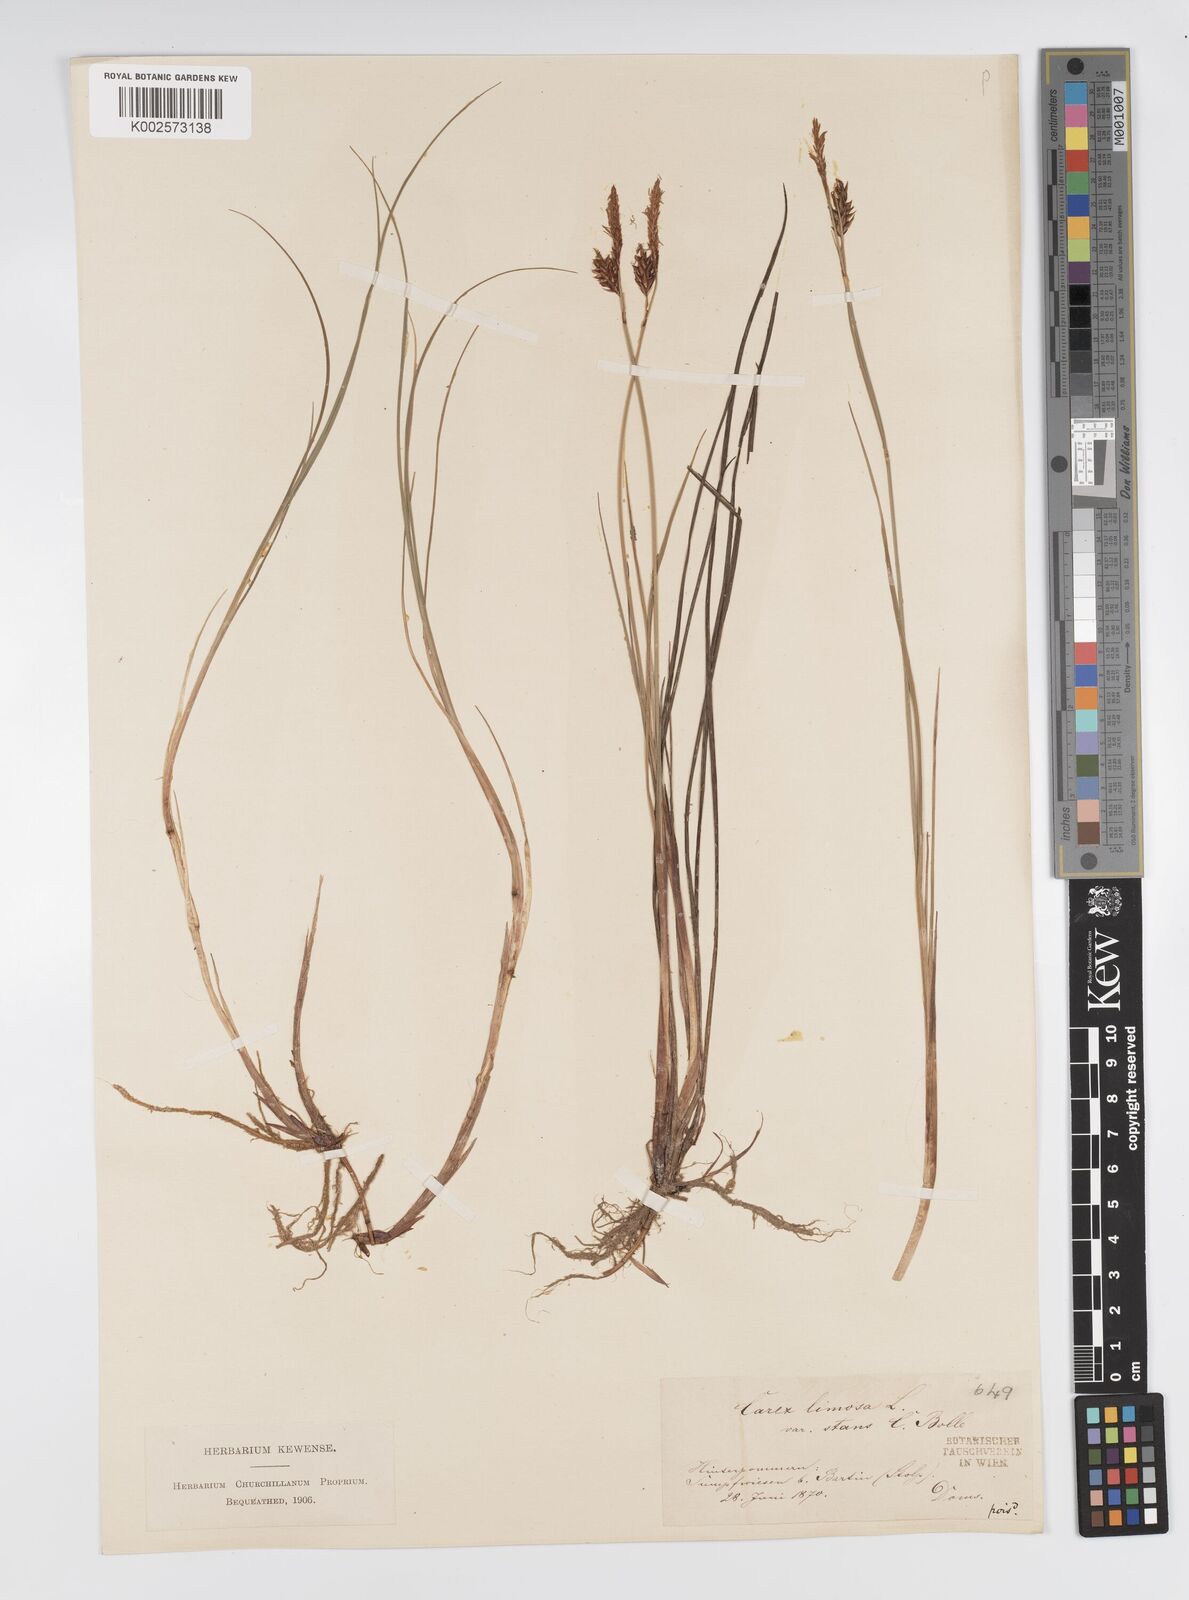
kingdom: Plantae
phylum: Tracheophyta
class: Liliopsida
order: Poales
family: Cyperaceae
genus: Carex
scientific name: Carex limosa
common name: Bog sedge
